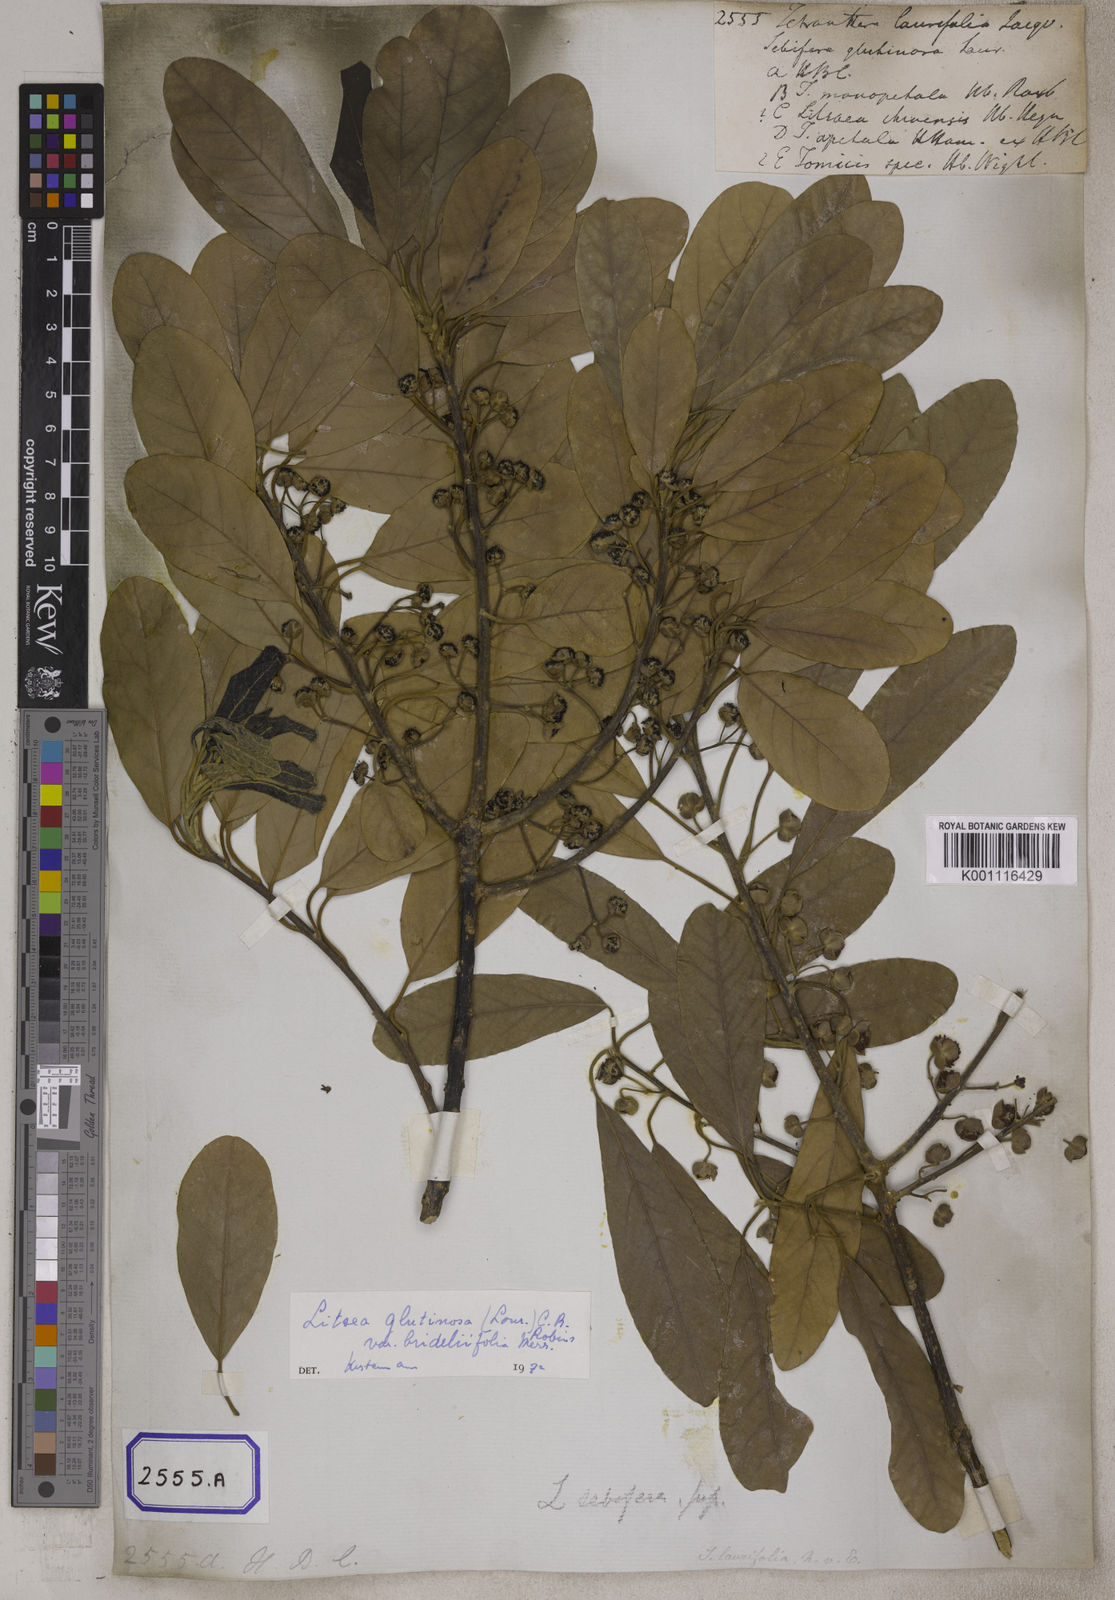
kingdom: Plantae
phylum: Tracheophyta
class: Magnoliopsida
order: Laurales
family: Lauraceae
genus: Litsea
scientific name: Litsea glutinosa
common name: Indian-laurel
